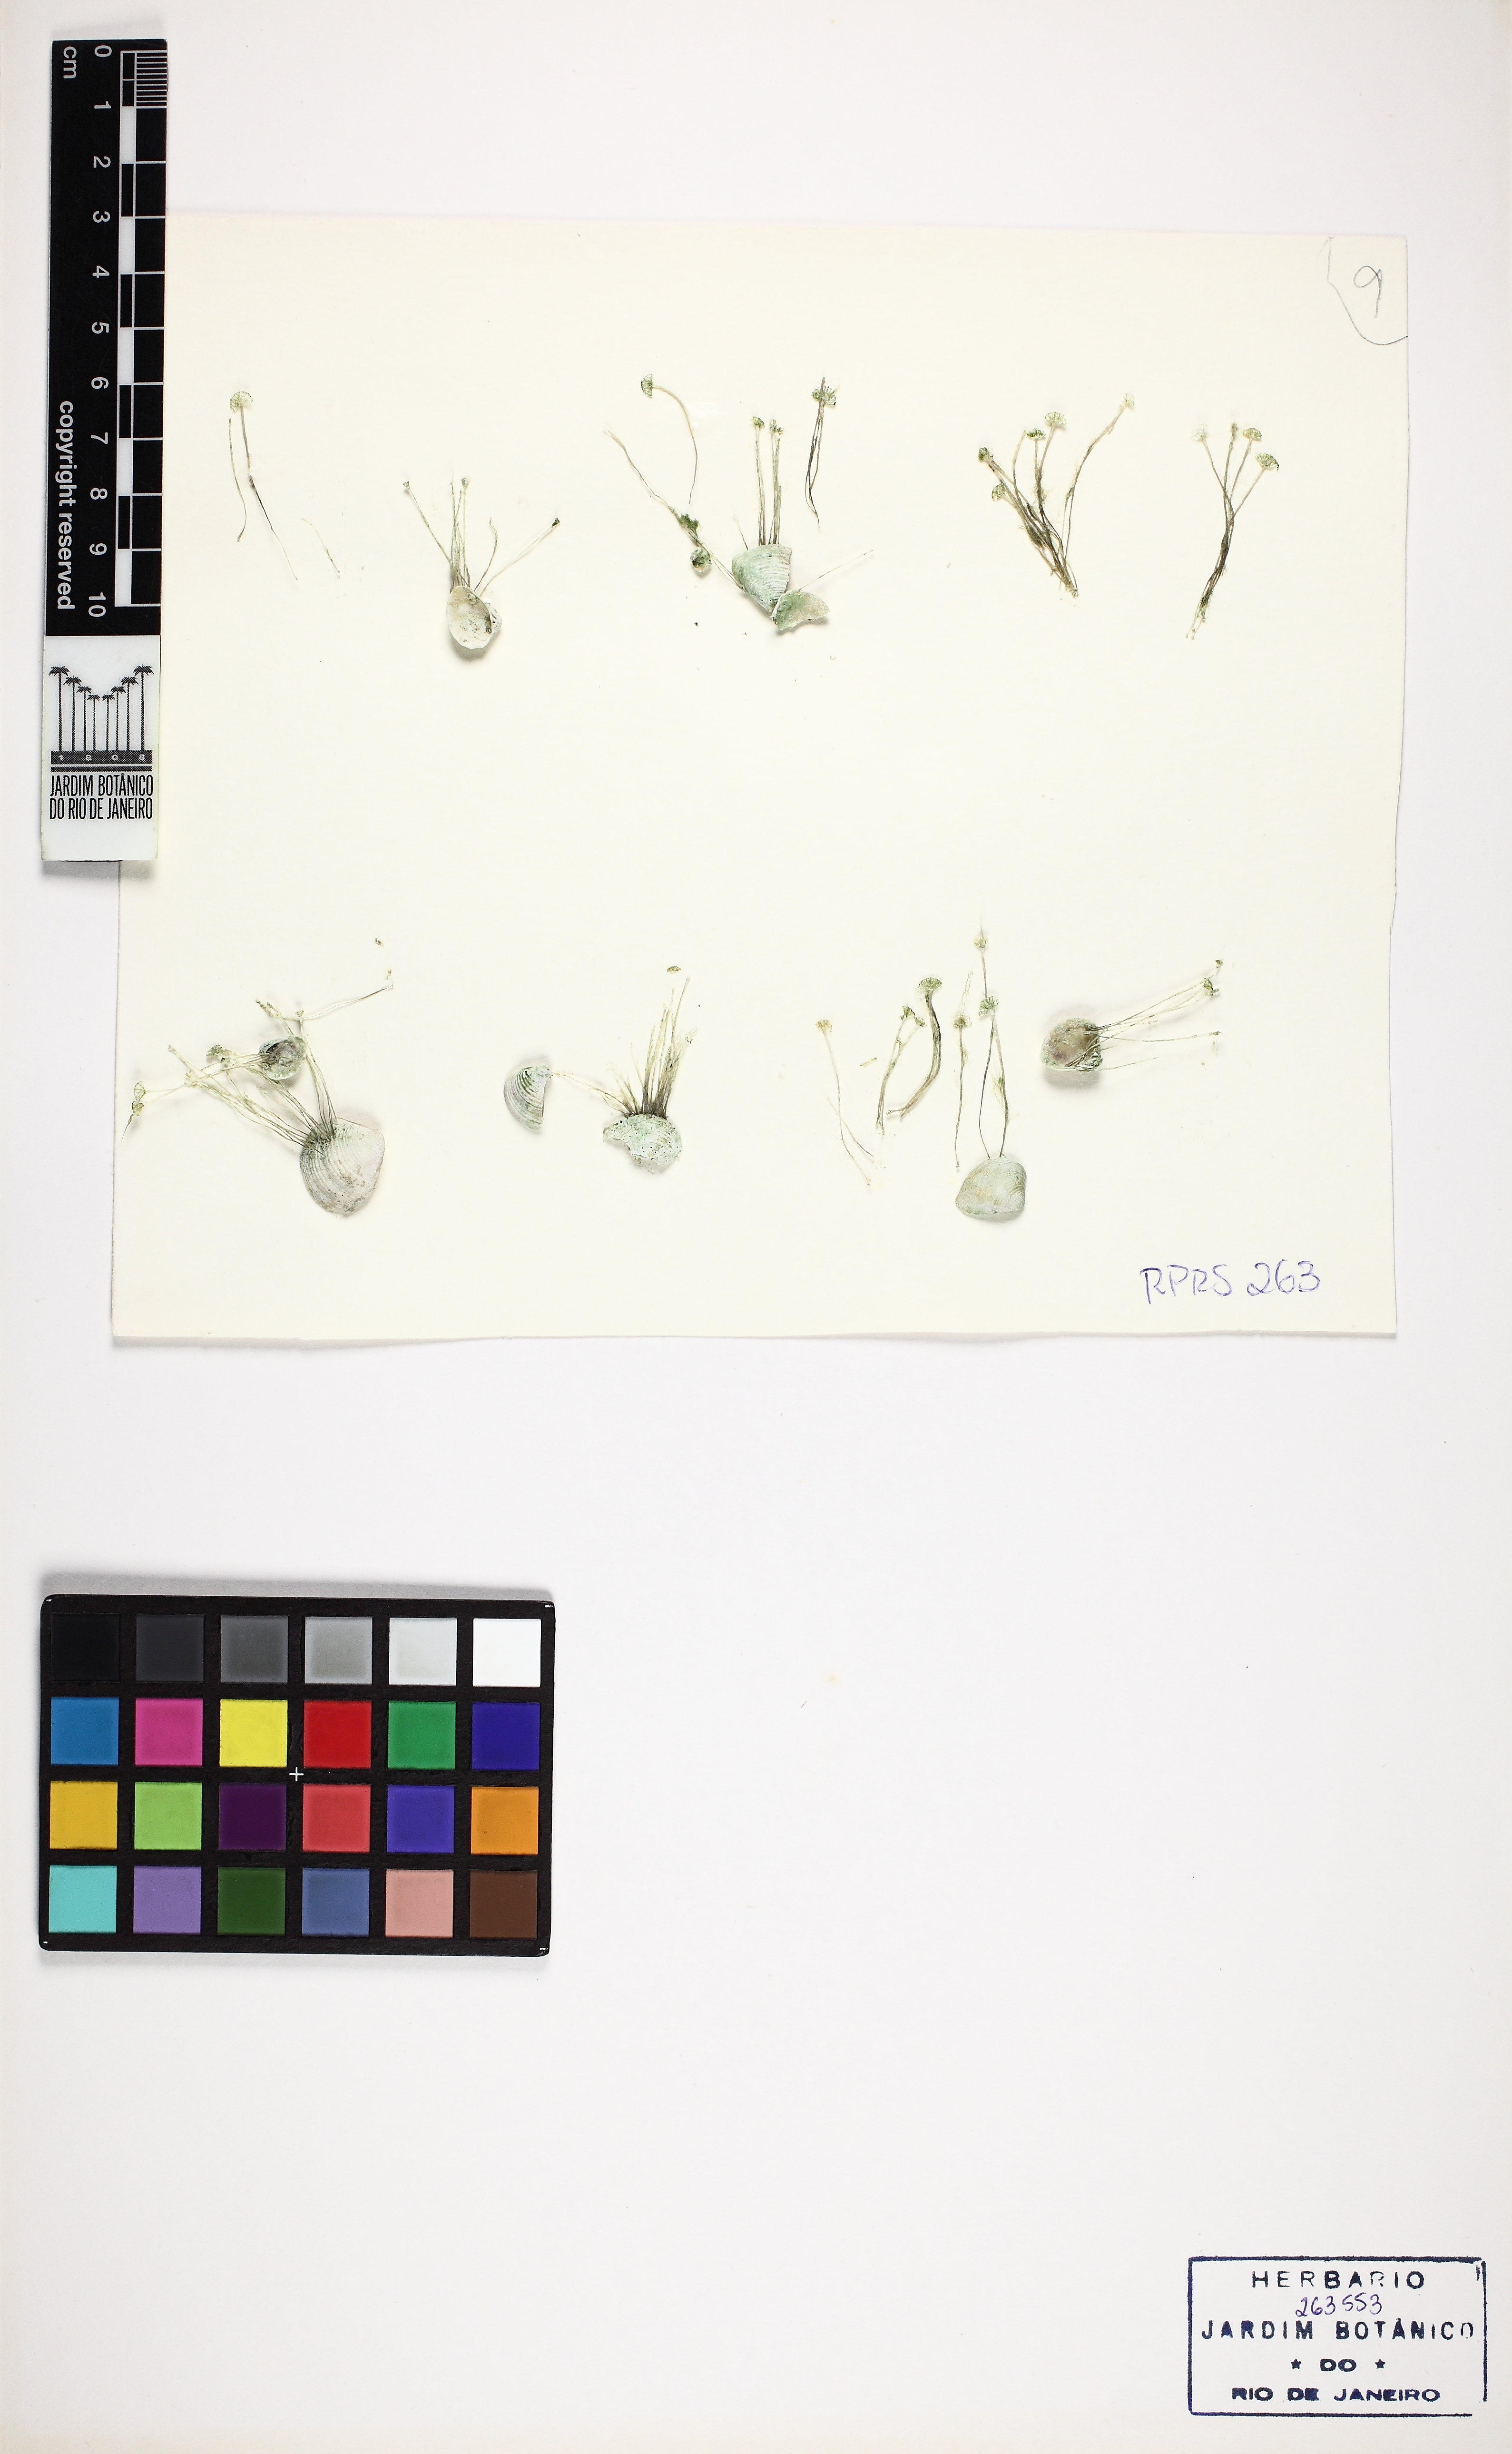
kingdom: Plantae
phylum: Chlorophyta
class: Ulvophyceae
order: Dasycladales
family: Polyphysaceae
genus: Acetabularia
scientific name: Acetabularia caliculus
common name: Green mermaid's wine glass
